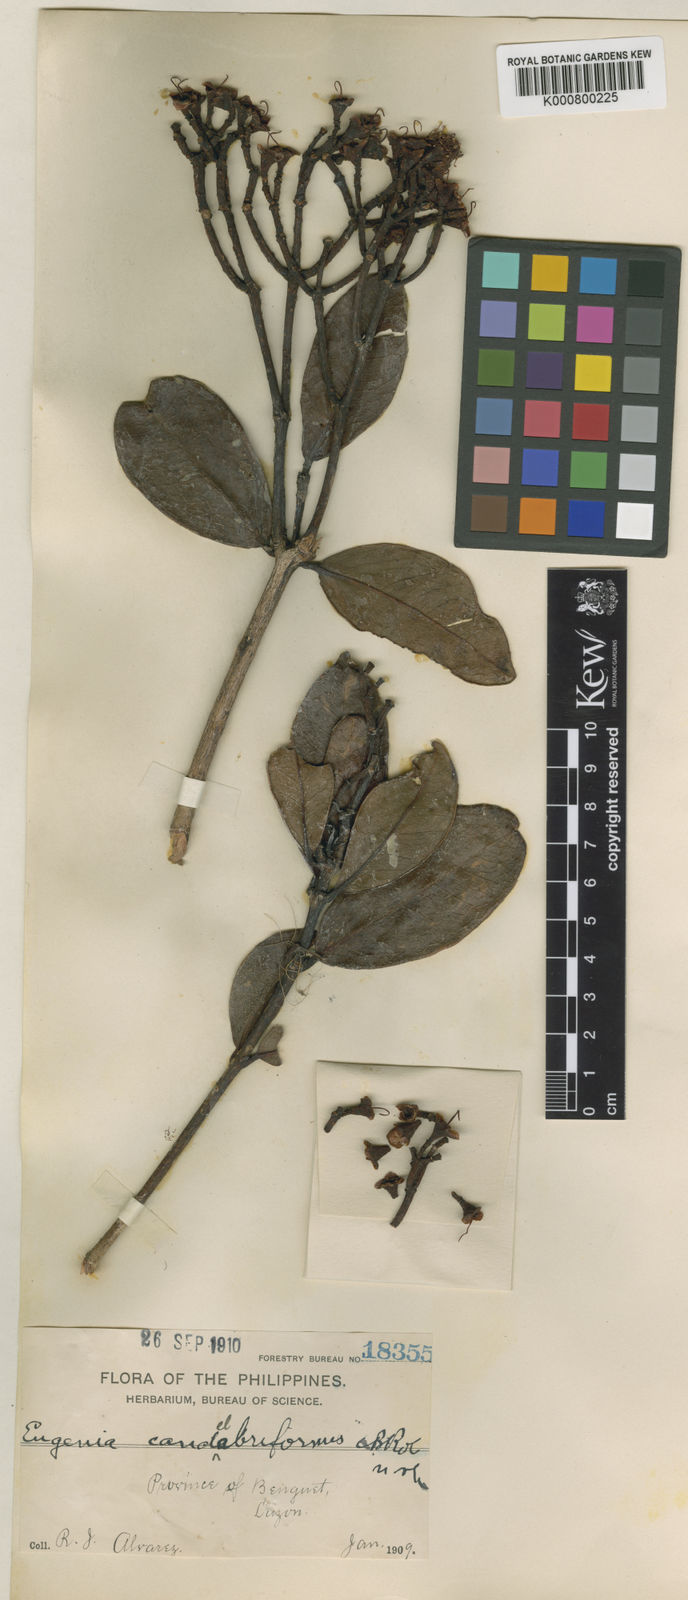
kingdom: Plantae
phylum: Tracheophyta
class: Magnoliopsida
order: Myrtales
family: Myrtaceae
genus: Syzygium
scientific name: Syzygium candelabriforme
